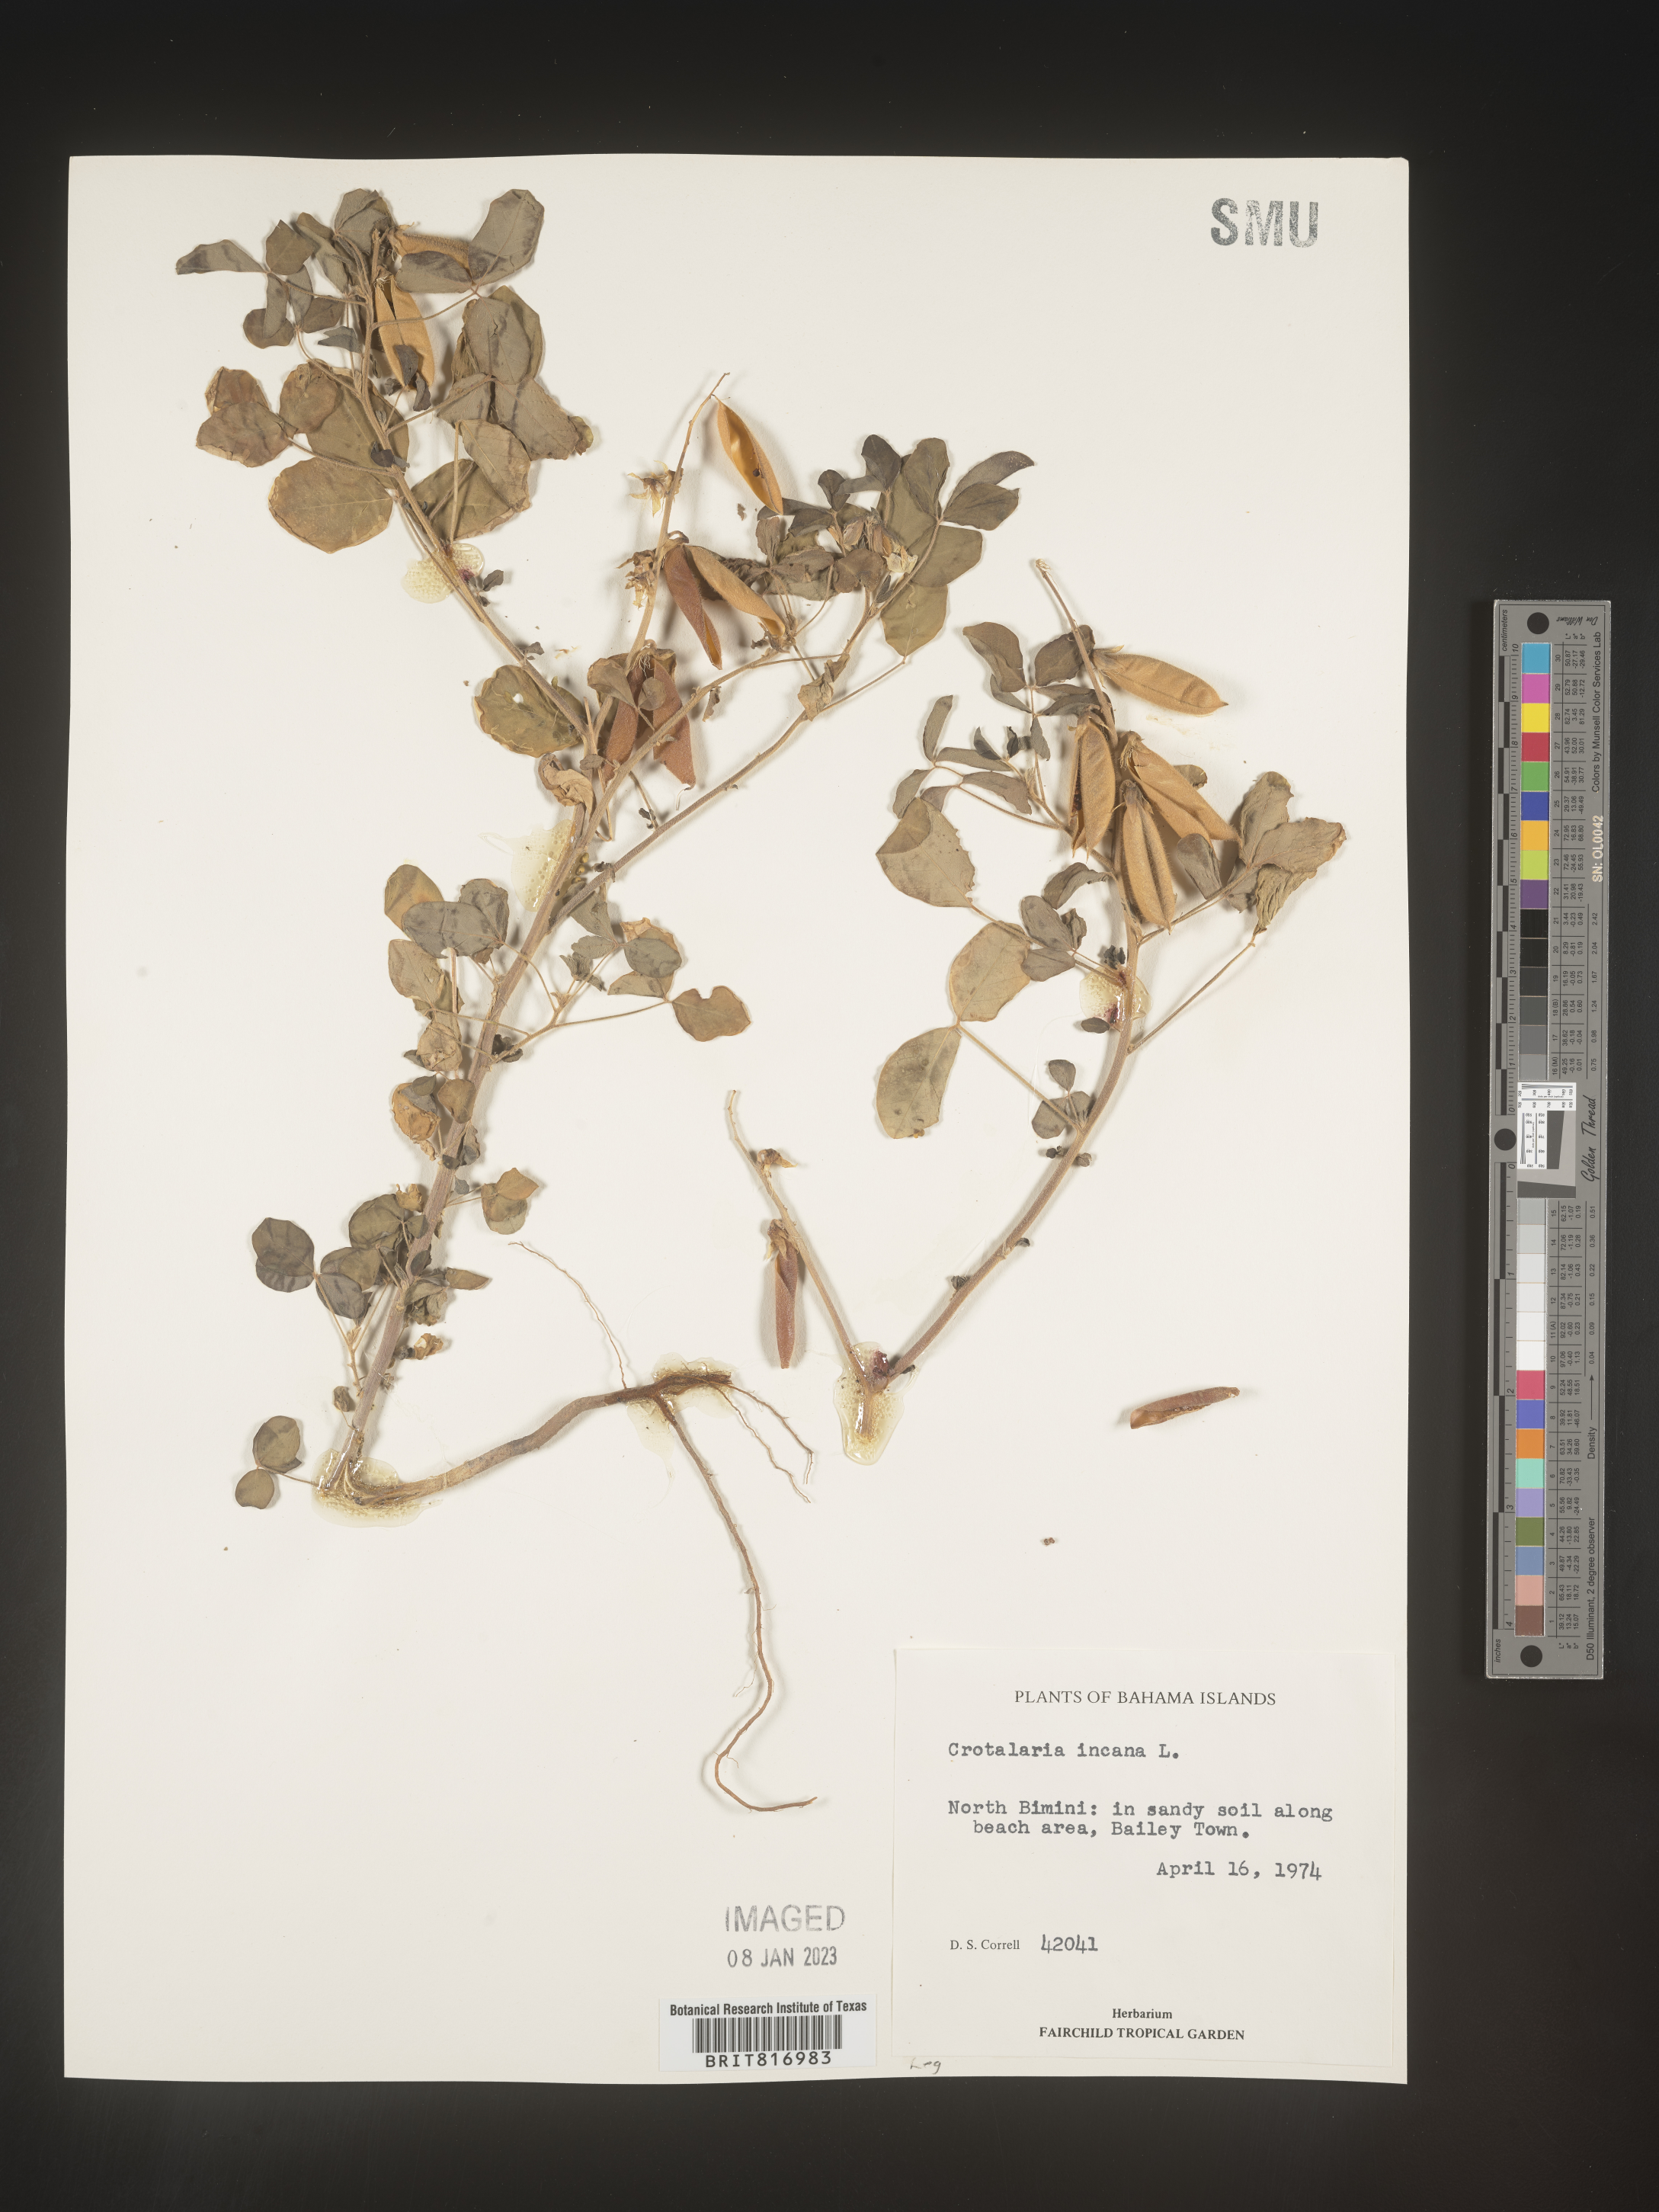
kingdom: Plantae
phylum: Tracheophyta
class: Magnoliopsida
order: Fabales
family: Fabaceae
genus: Crotalaria
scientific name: Crotalaria
